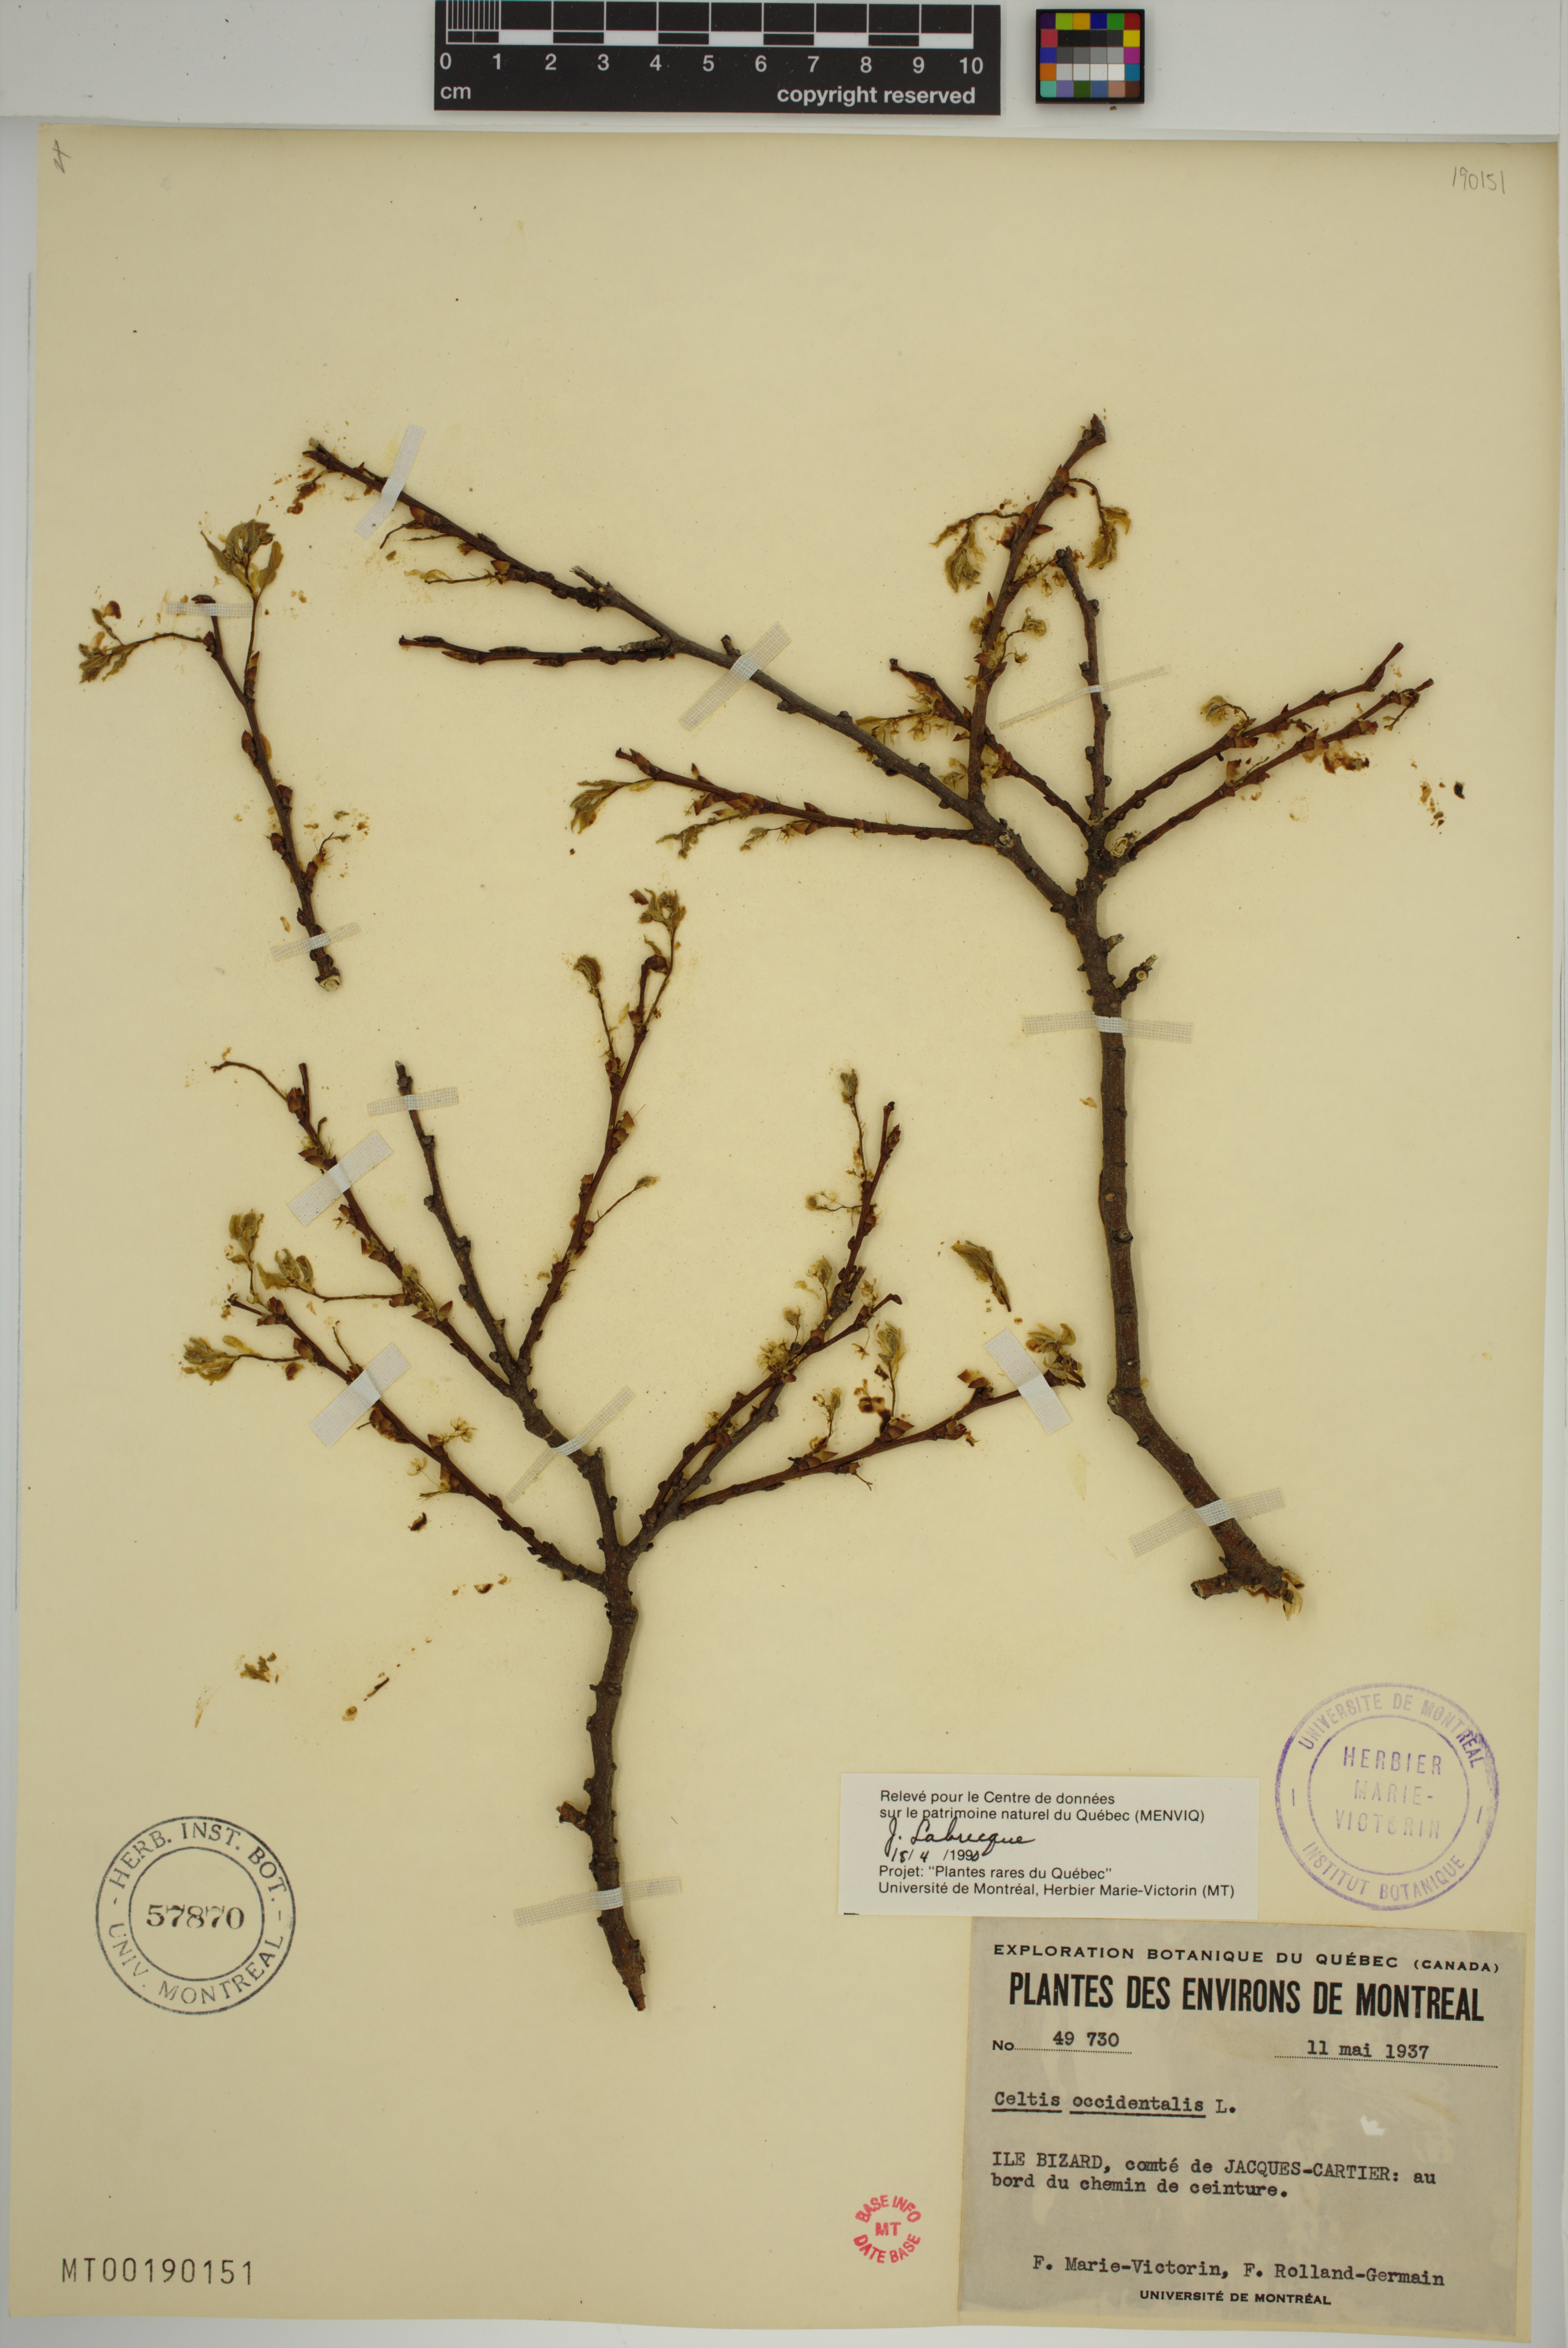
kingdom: Plantae
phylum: Tracheophyta
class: Magnoliopsida
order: Rosales
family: Cannabaceae
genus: Celtis
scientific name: Celtis occidentalis
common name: Common hackberry
